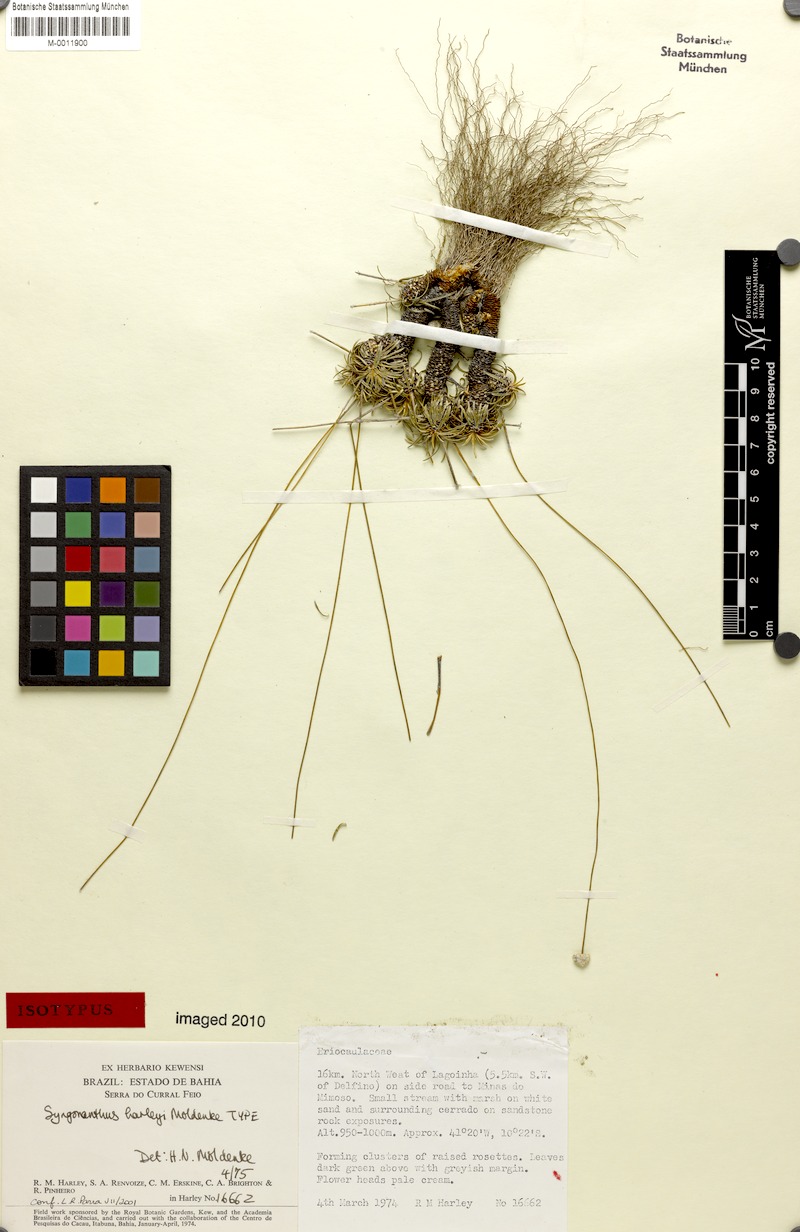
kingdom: Plantae
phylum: Tracheophyta
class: Liliopsida
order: Poales
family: Eriocaulaceae
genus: Comanthera
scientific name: Comanthera harleyi
